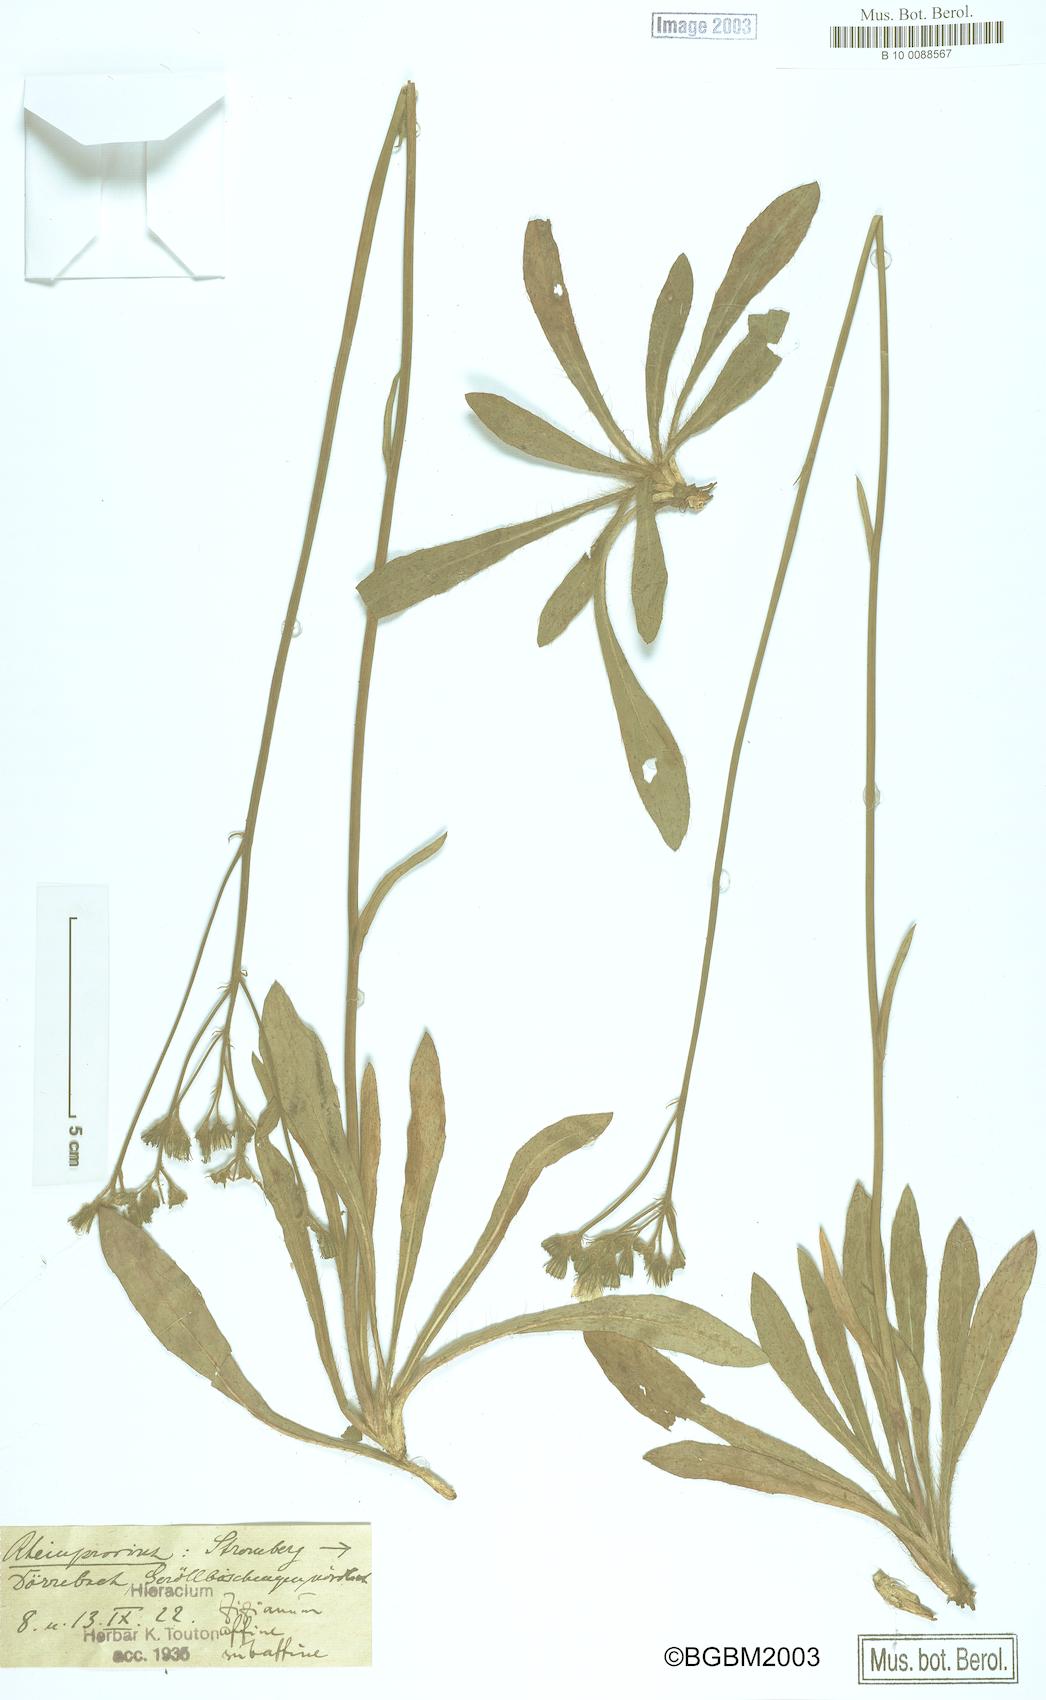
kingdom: Plantae
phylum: Tracheophyta
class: Magnoliopsida
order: Asterales
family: Asteraceae
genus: Pilosella
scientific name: Pilosella ziziana
